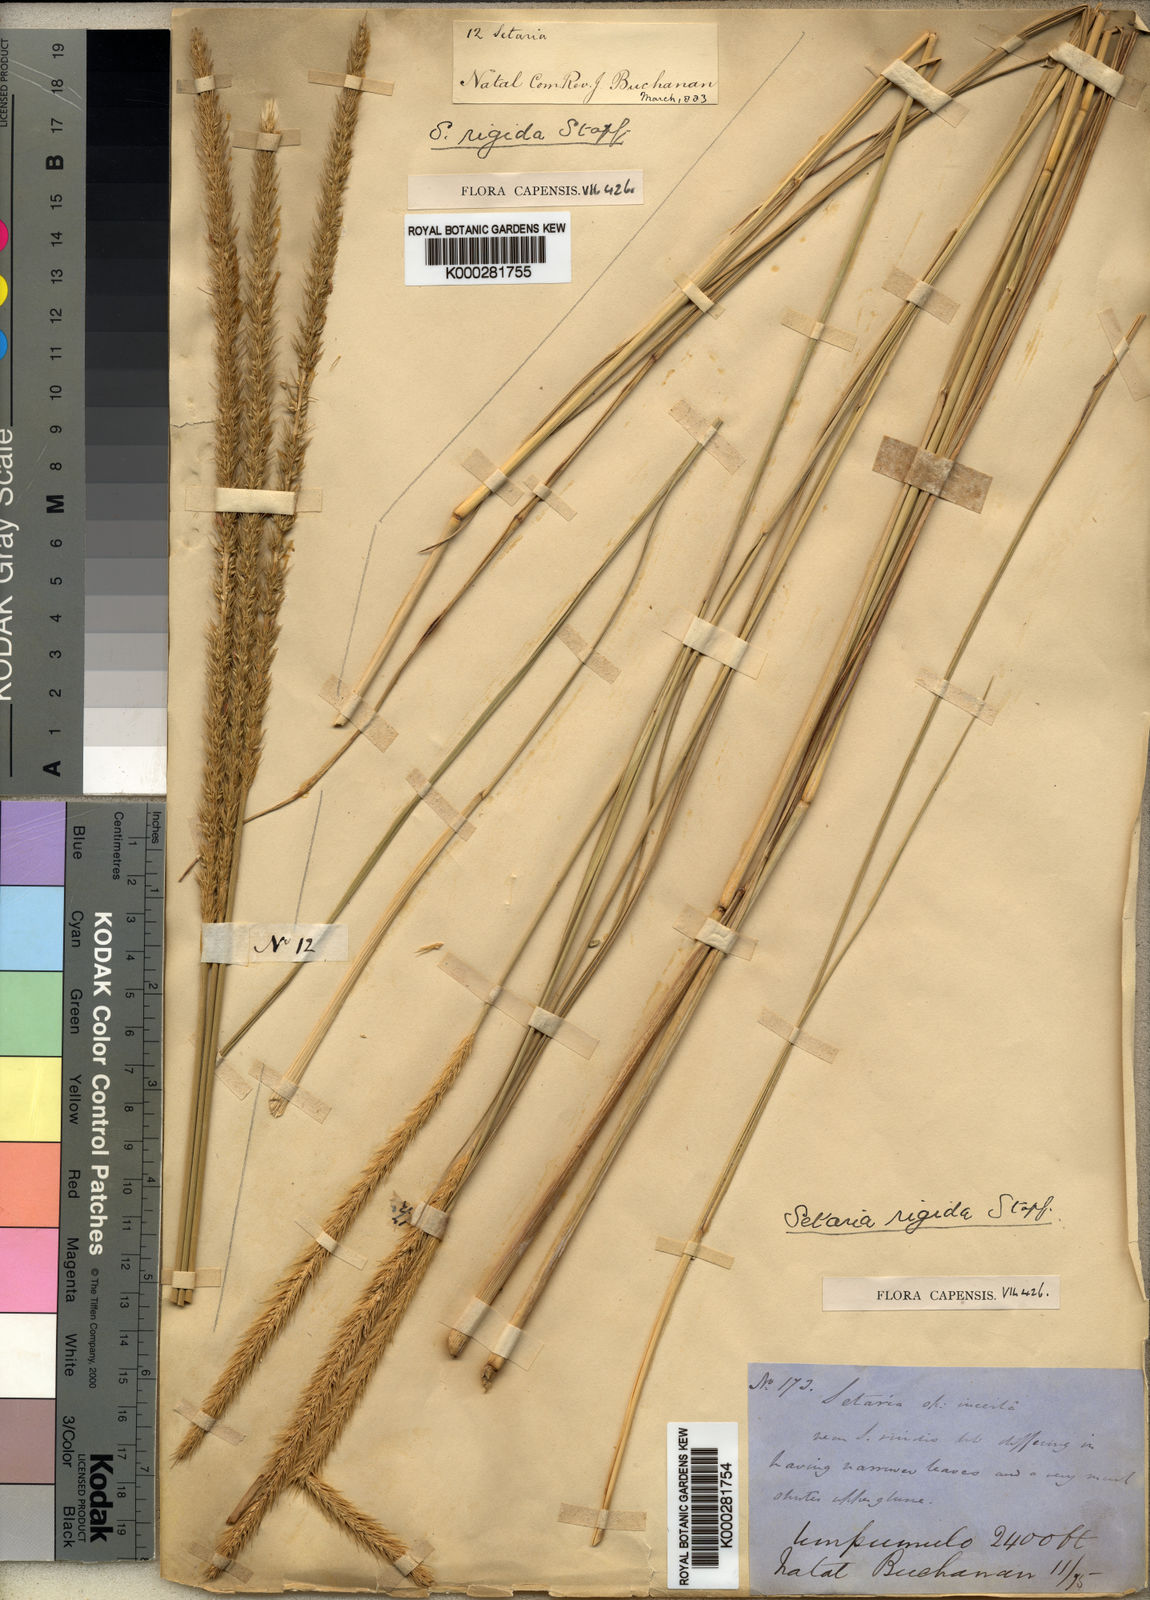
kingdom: Plantae
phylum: Tracheophyta
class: Liliopsida
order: Poales
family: Poaceae
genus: Setaria
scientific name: Setaria rigida
